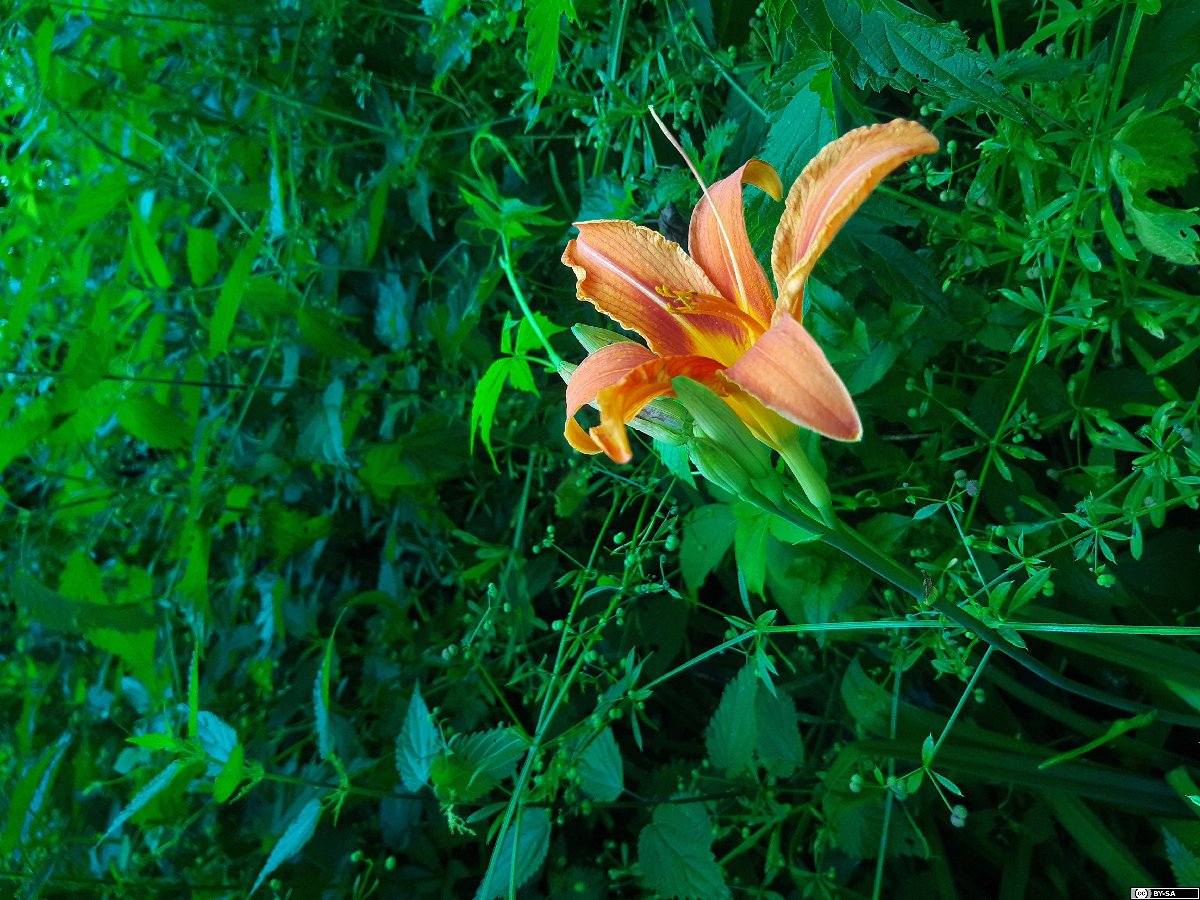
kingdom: Plantae
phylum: Tracheophyta
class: Liliopsida
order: Asparagales
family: Asphodelaceae
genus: Hemerocallis
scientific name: Hemerocallis fulva
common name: Orange day-lily
